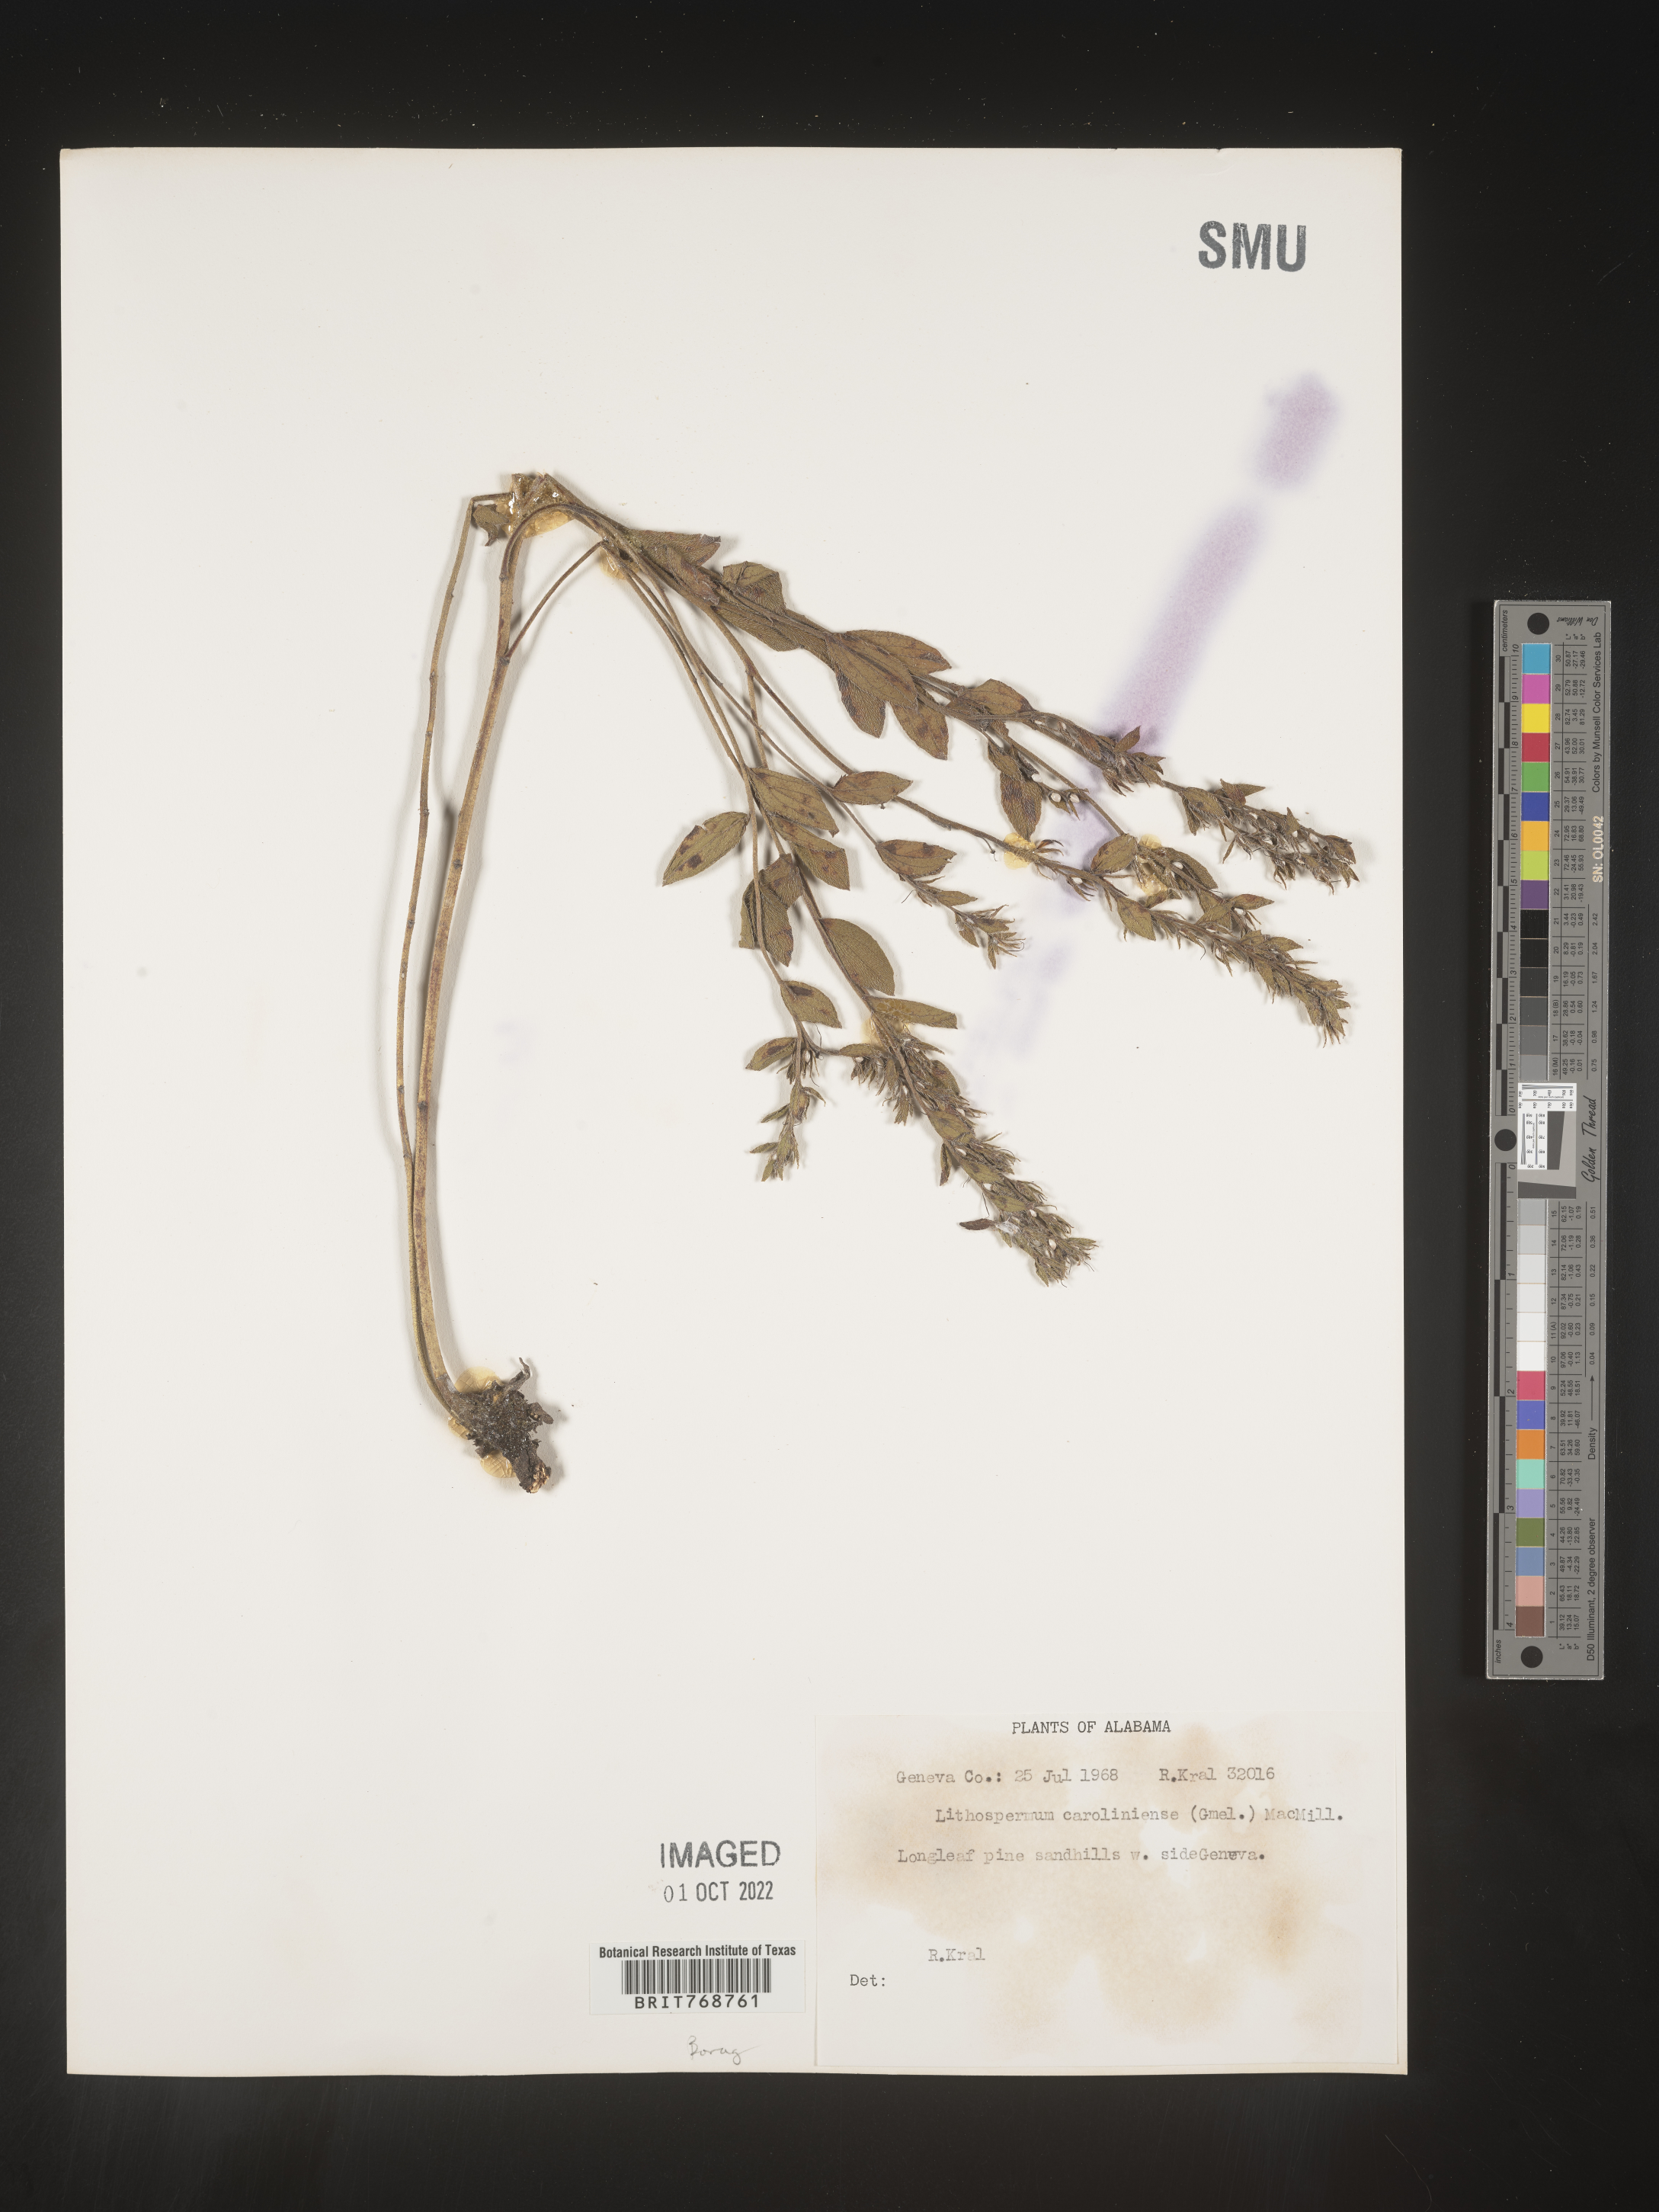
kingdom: Plantae
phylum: Tracheophyta
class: Magnoliopsida
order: Boraginales
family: Boraginaceae
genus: Lithospermum
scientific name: Lithospermum caroliniense
